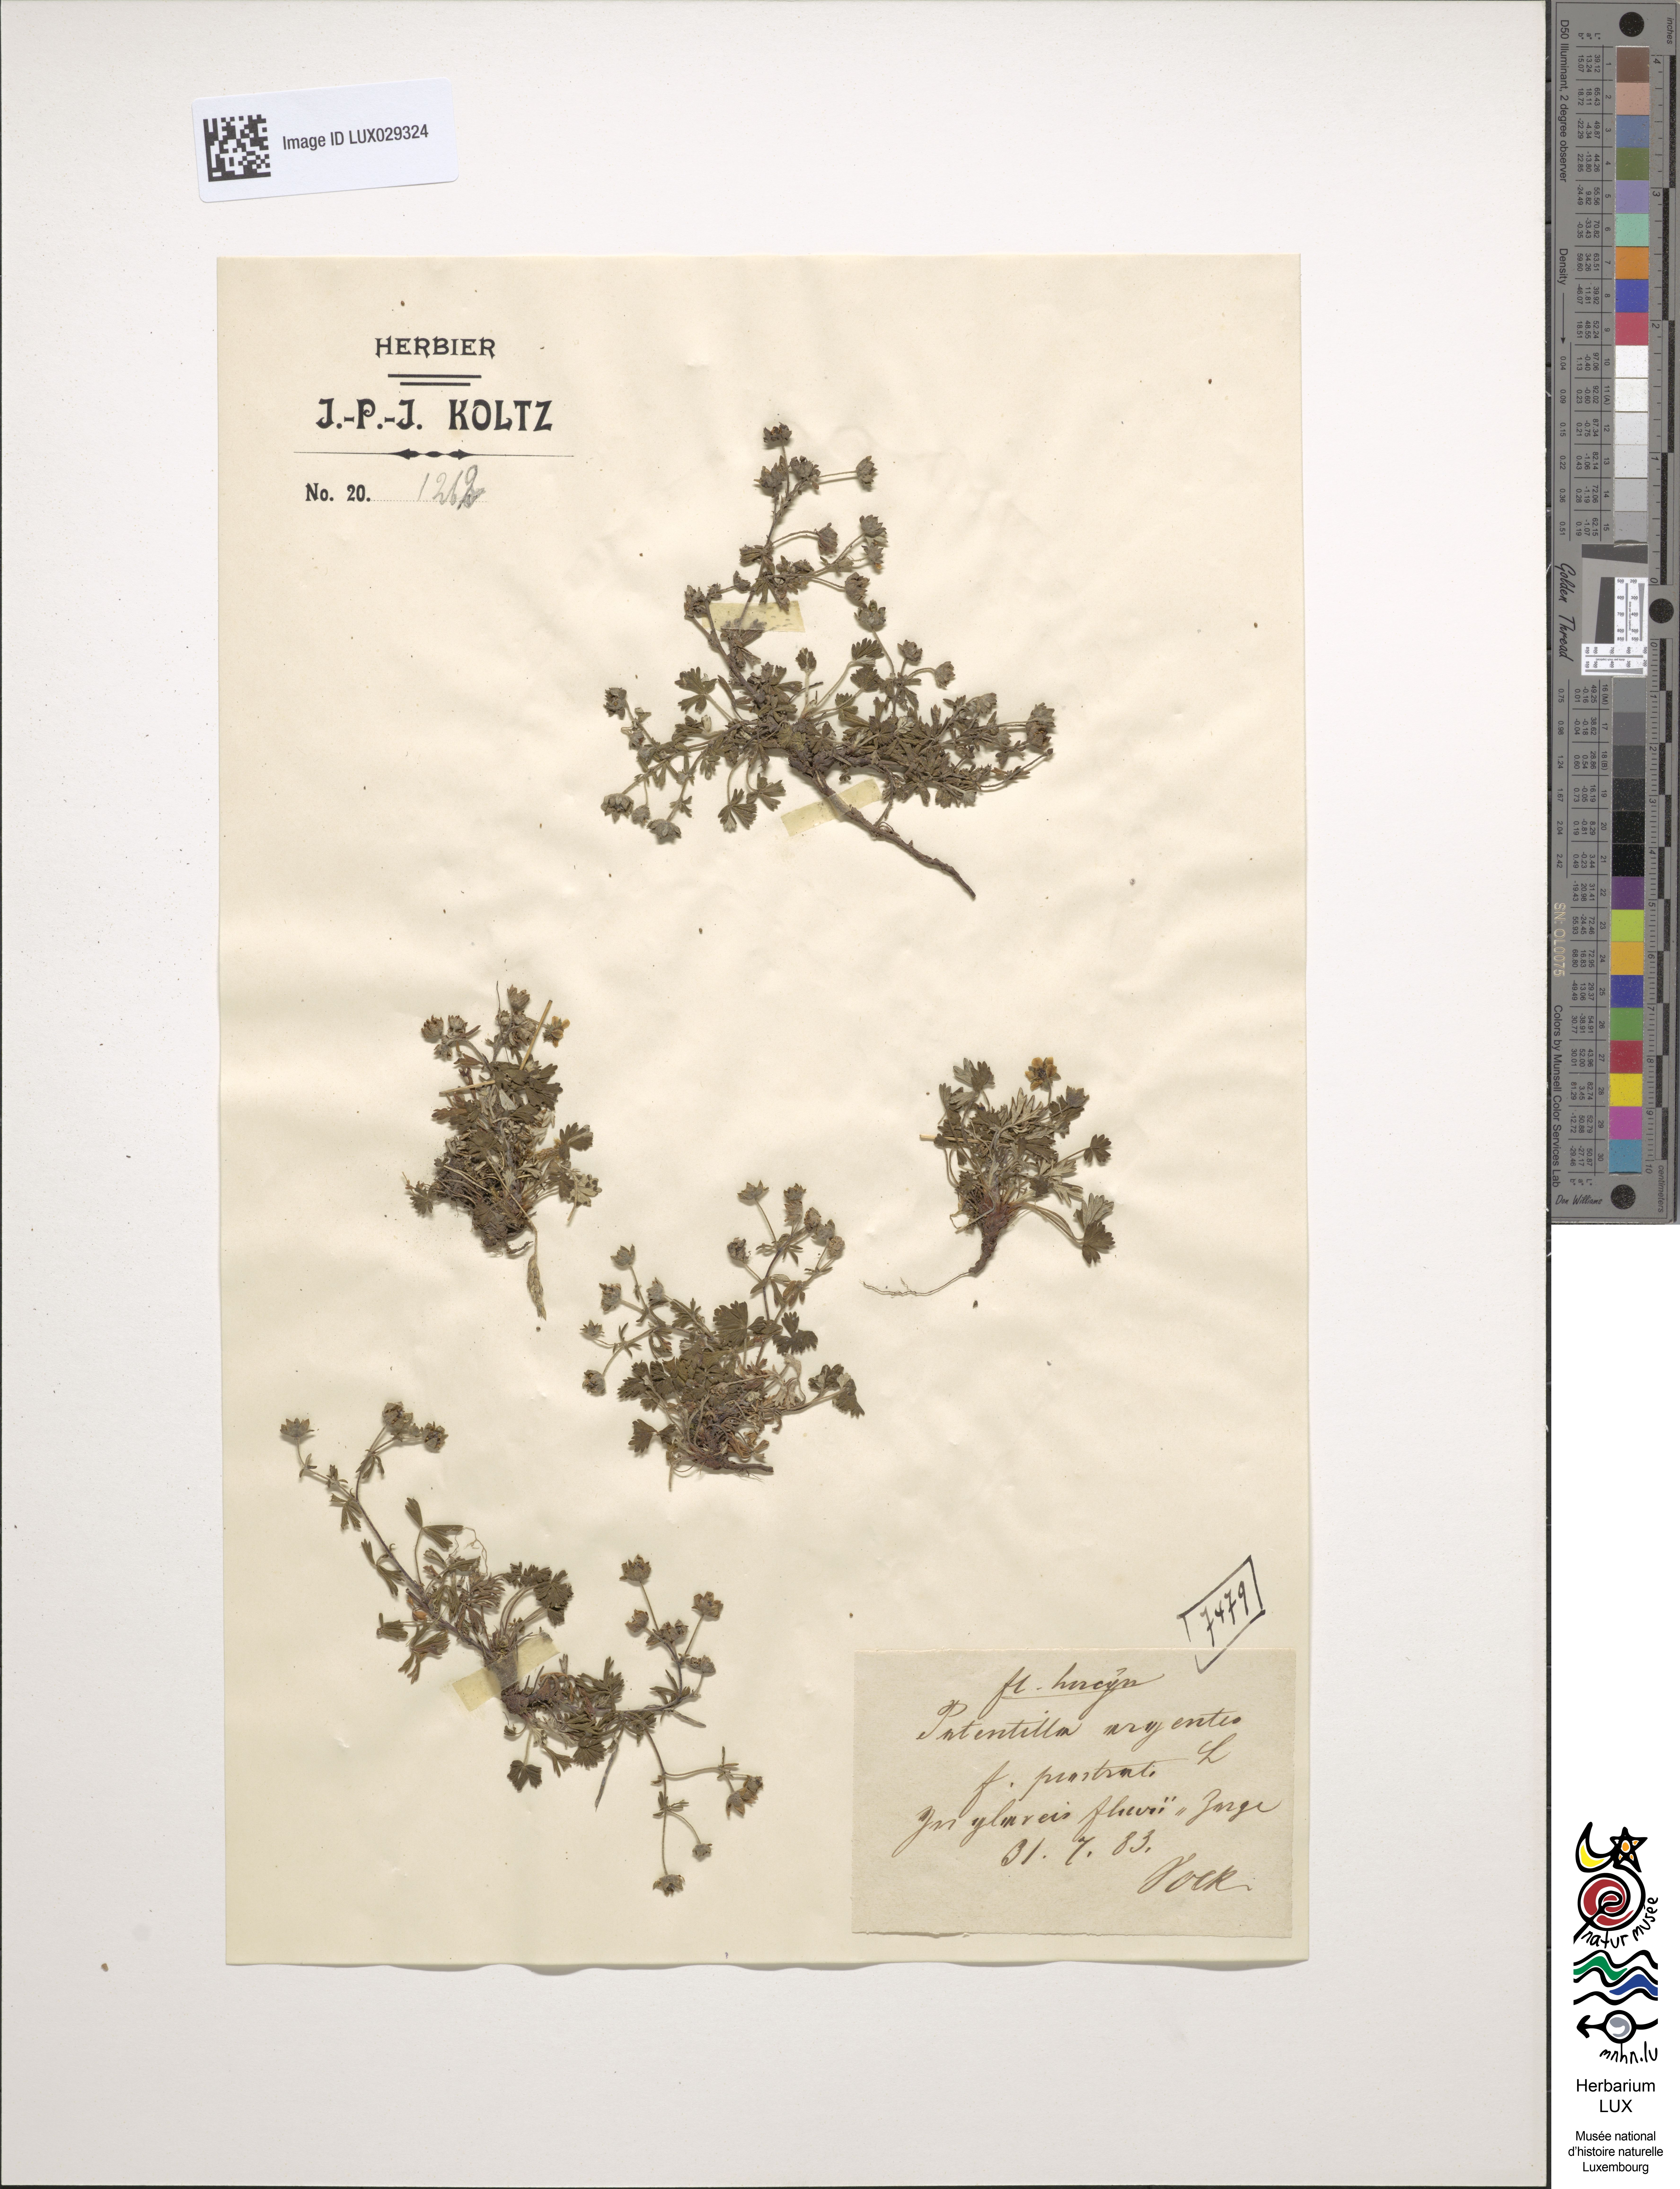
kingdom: Plantae
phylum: Tracheophyta
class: Magnoliopsida
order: Rosales
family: Rosaceae
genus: Potentilla
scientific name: Potentilla argentea
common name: Hoary cinquefoil
